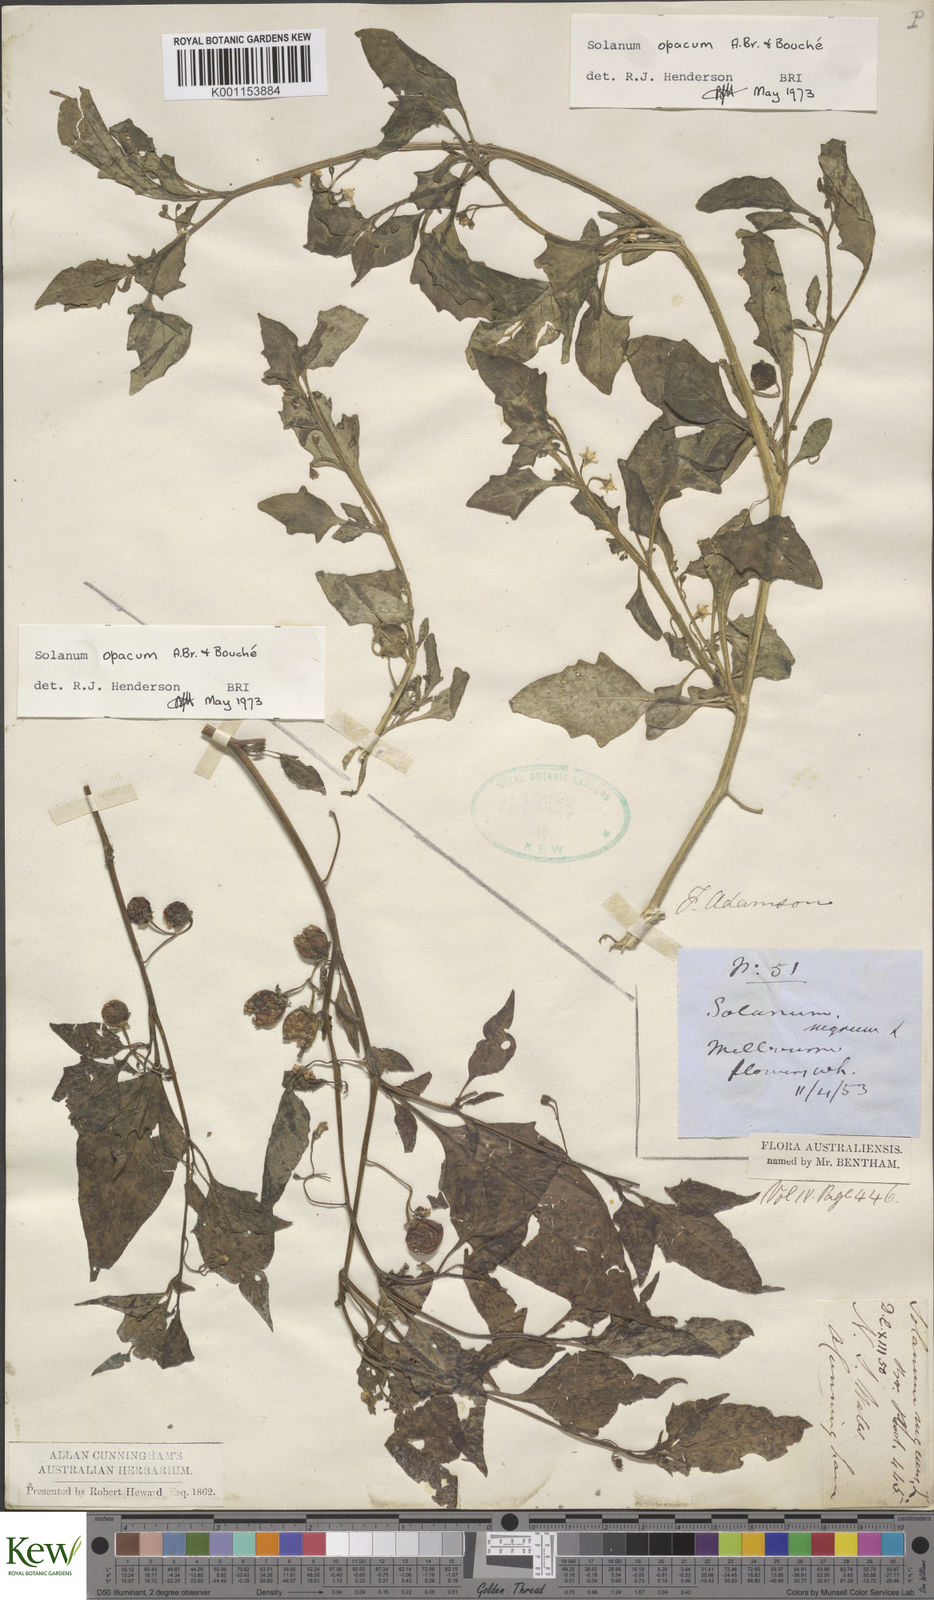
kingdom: Plantae
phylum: Tracheophyta
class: Magnoliopsida
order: Solanales
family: Solanaceae
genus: Solanum
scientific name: Solanum
